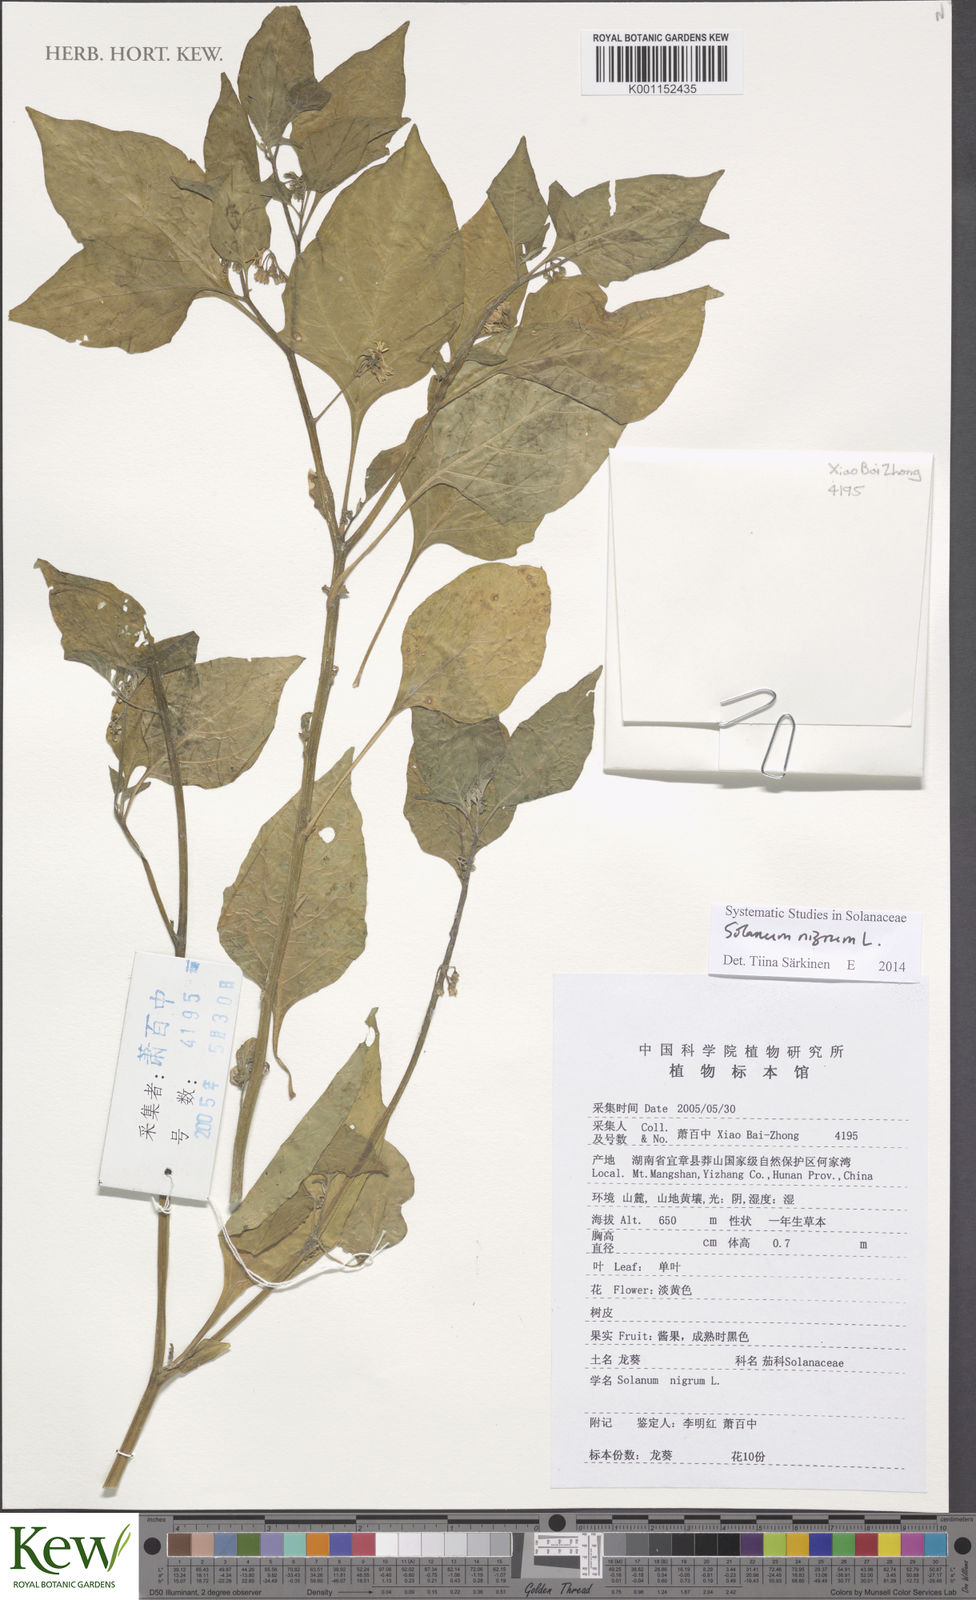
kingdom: Plantae
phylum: Tracheophyta
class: Magnoliopsida
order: Solanales
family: Solanaceae
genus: Solanum
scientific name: Solanum nigrum
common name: Black nightshade
